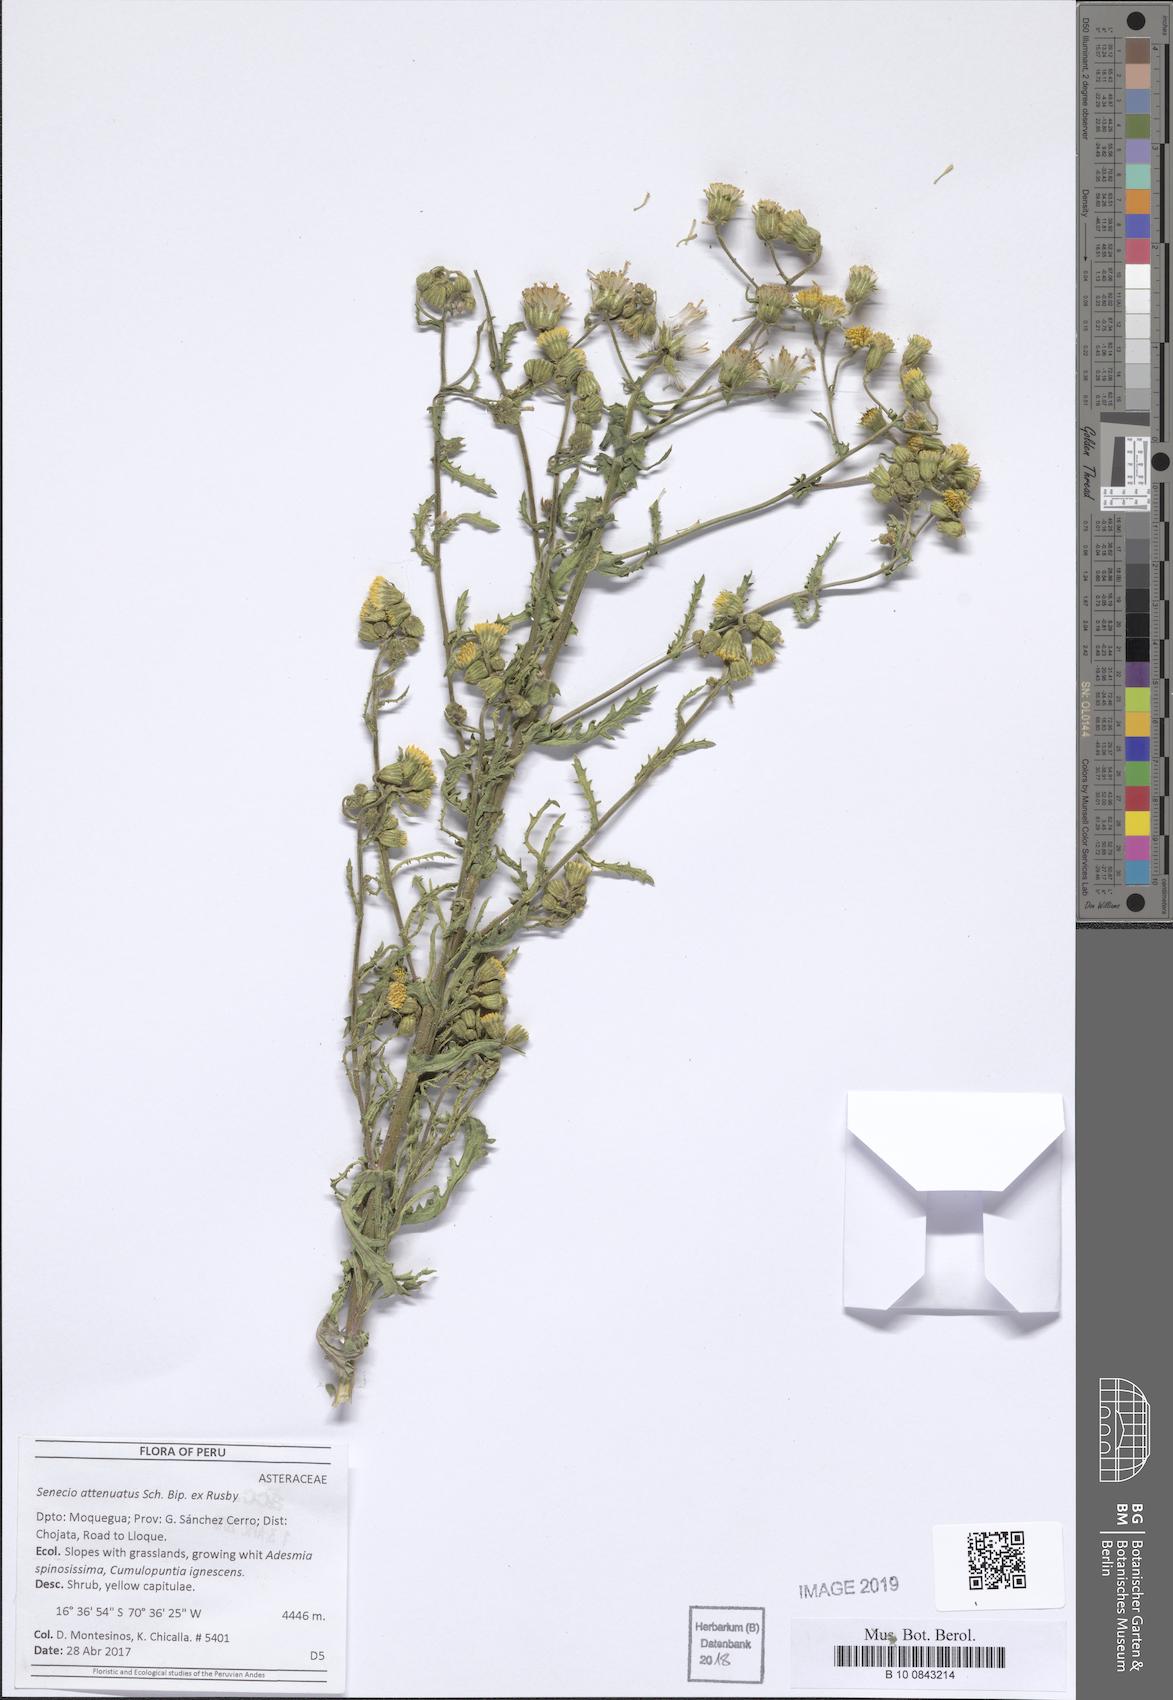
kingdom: Plantae
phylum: Tracheophyta
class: Magnoliopsida
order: Asterales
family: Asteraceae
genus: Senecio
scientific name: Senecio attenuatus
